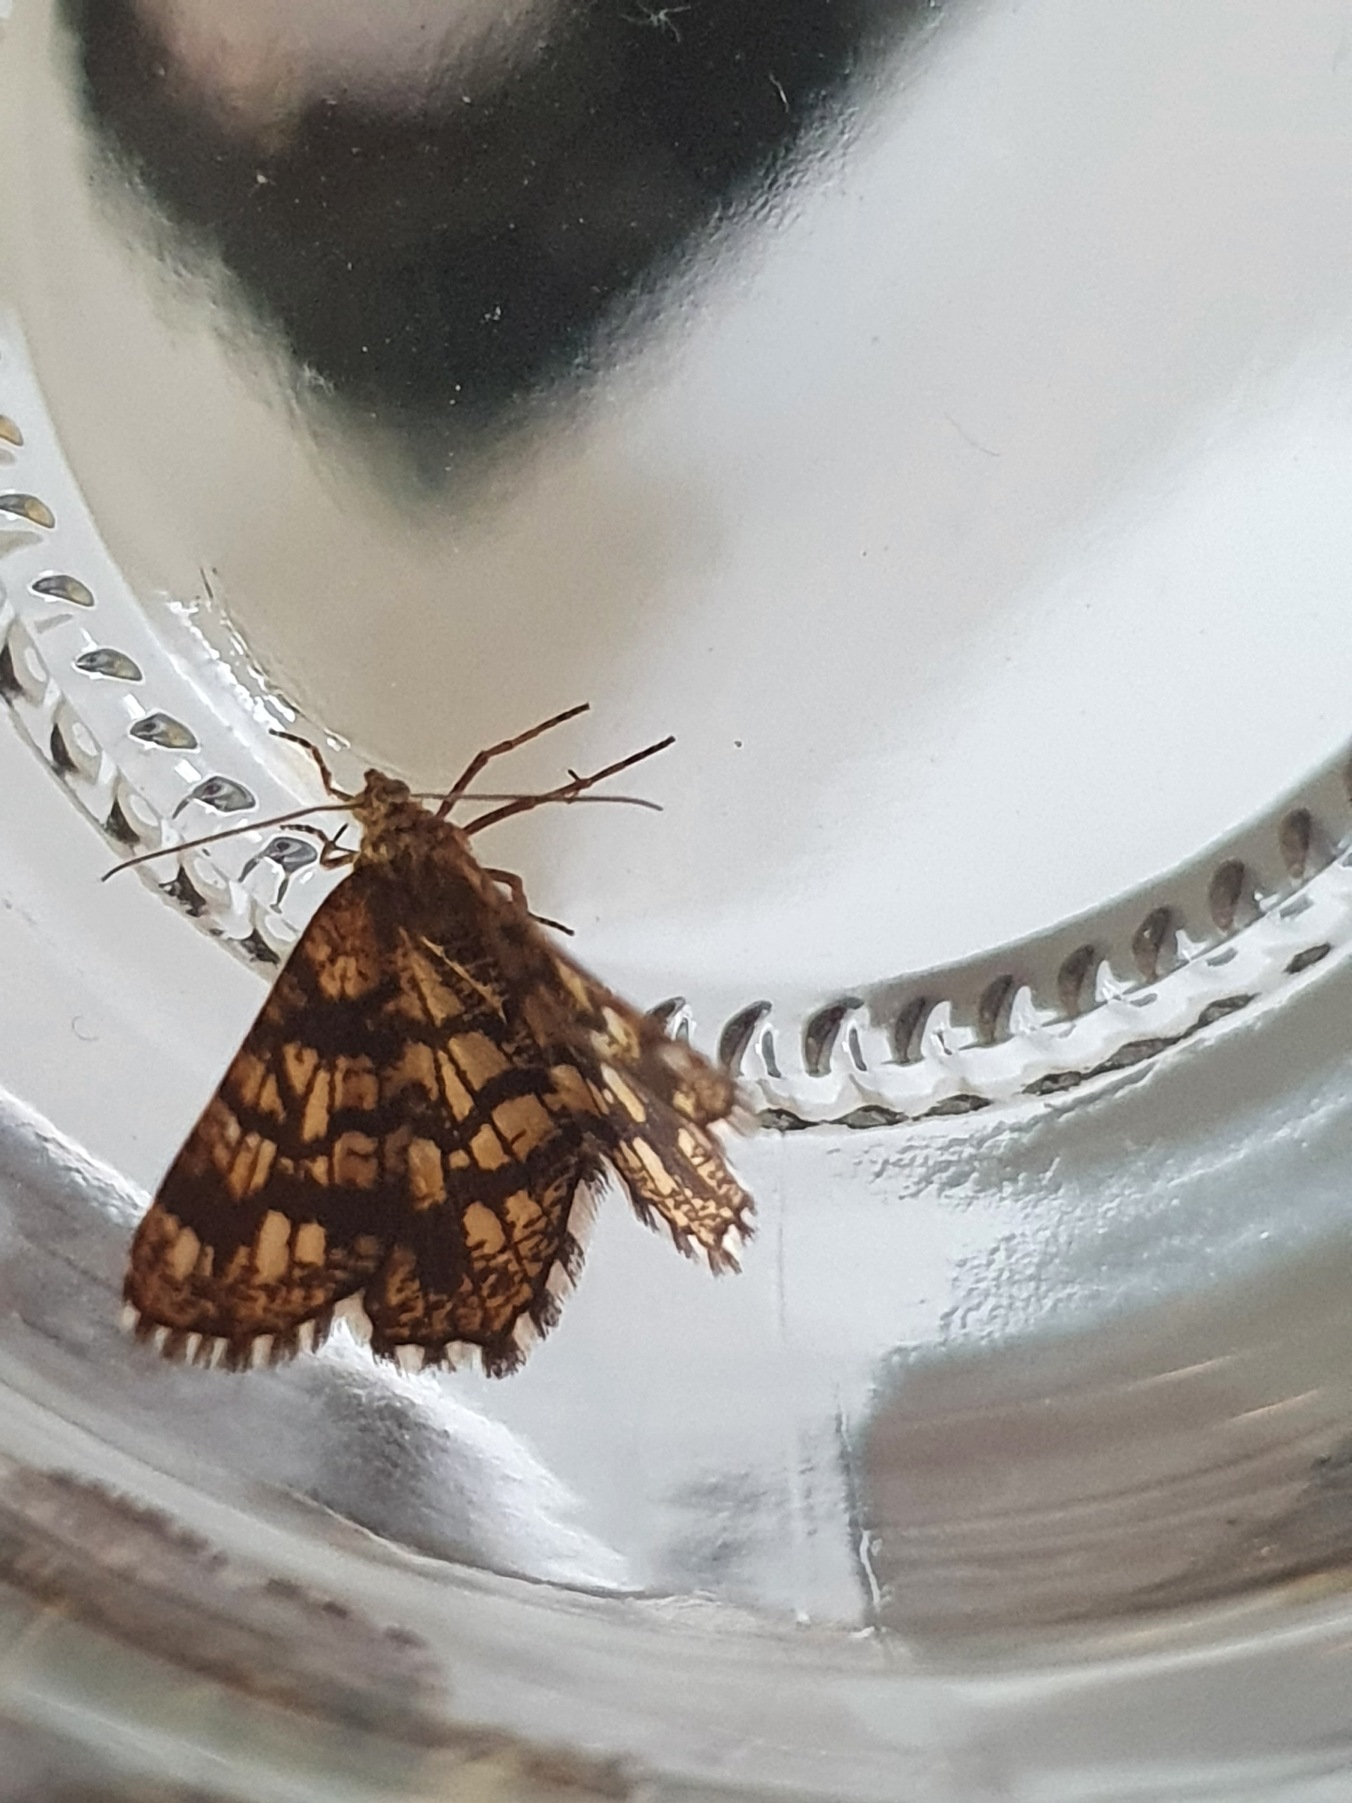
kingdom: Animalia
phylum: Arthropoda
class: Insecta
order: Lepidoptera
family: Geometridae
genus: Chiasmia
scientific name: Chiasmia clathrata
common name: Kløvermåler
